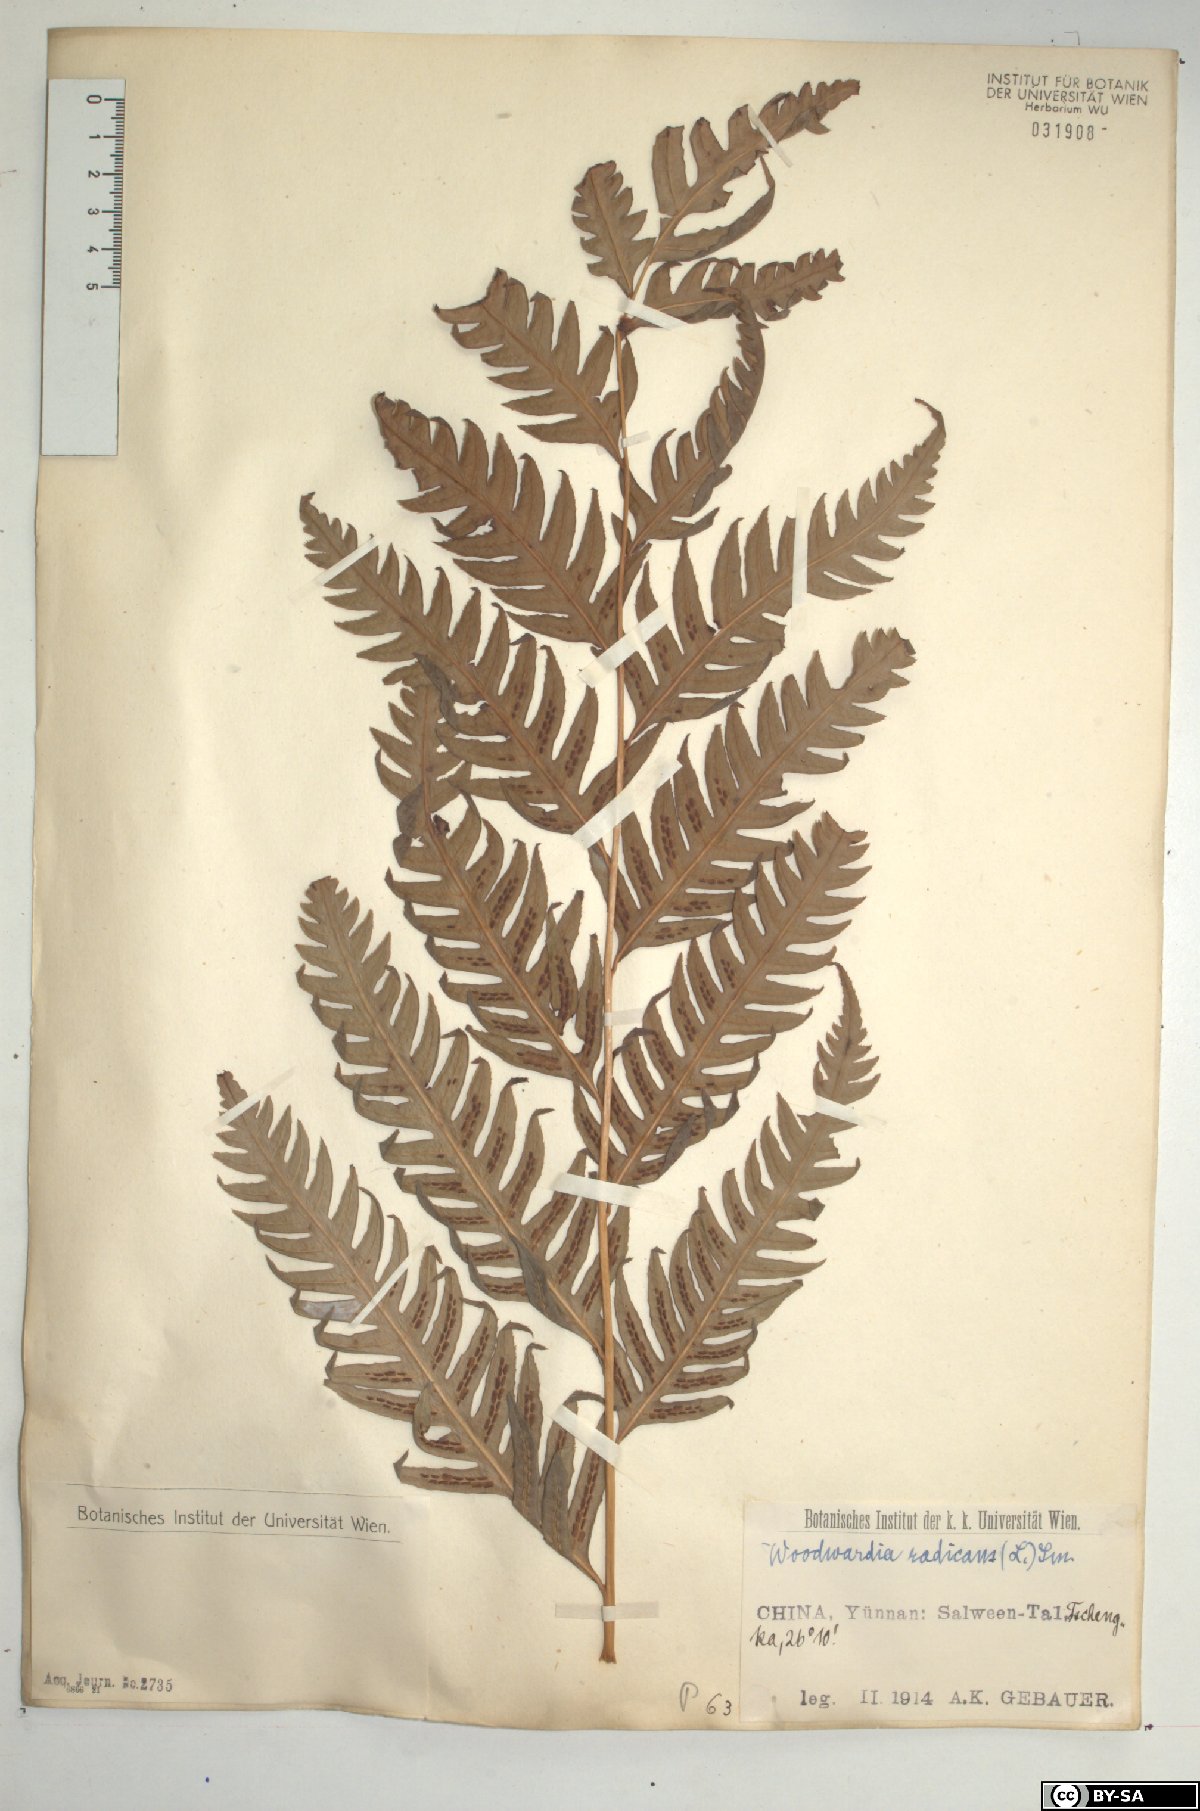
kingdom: Plantae
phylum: Tracheophyta
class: Polypodiopsida
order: Polypodiales
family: Blechnaceae
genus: Woodwardia
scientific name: Woodwardia radicans
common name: Rooting chainfern
